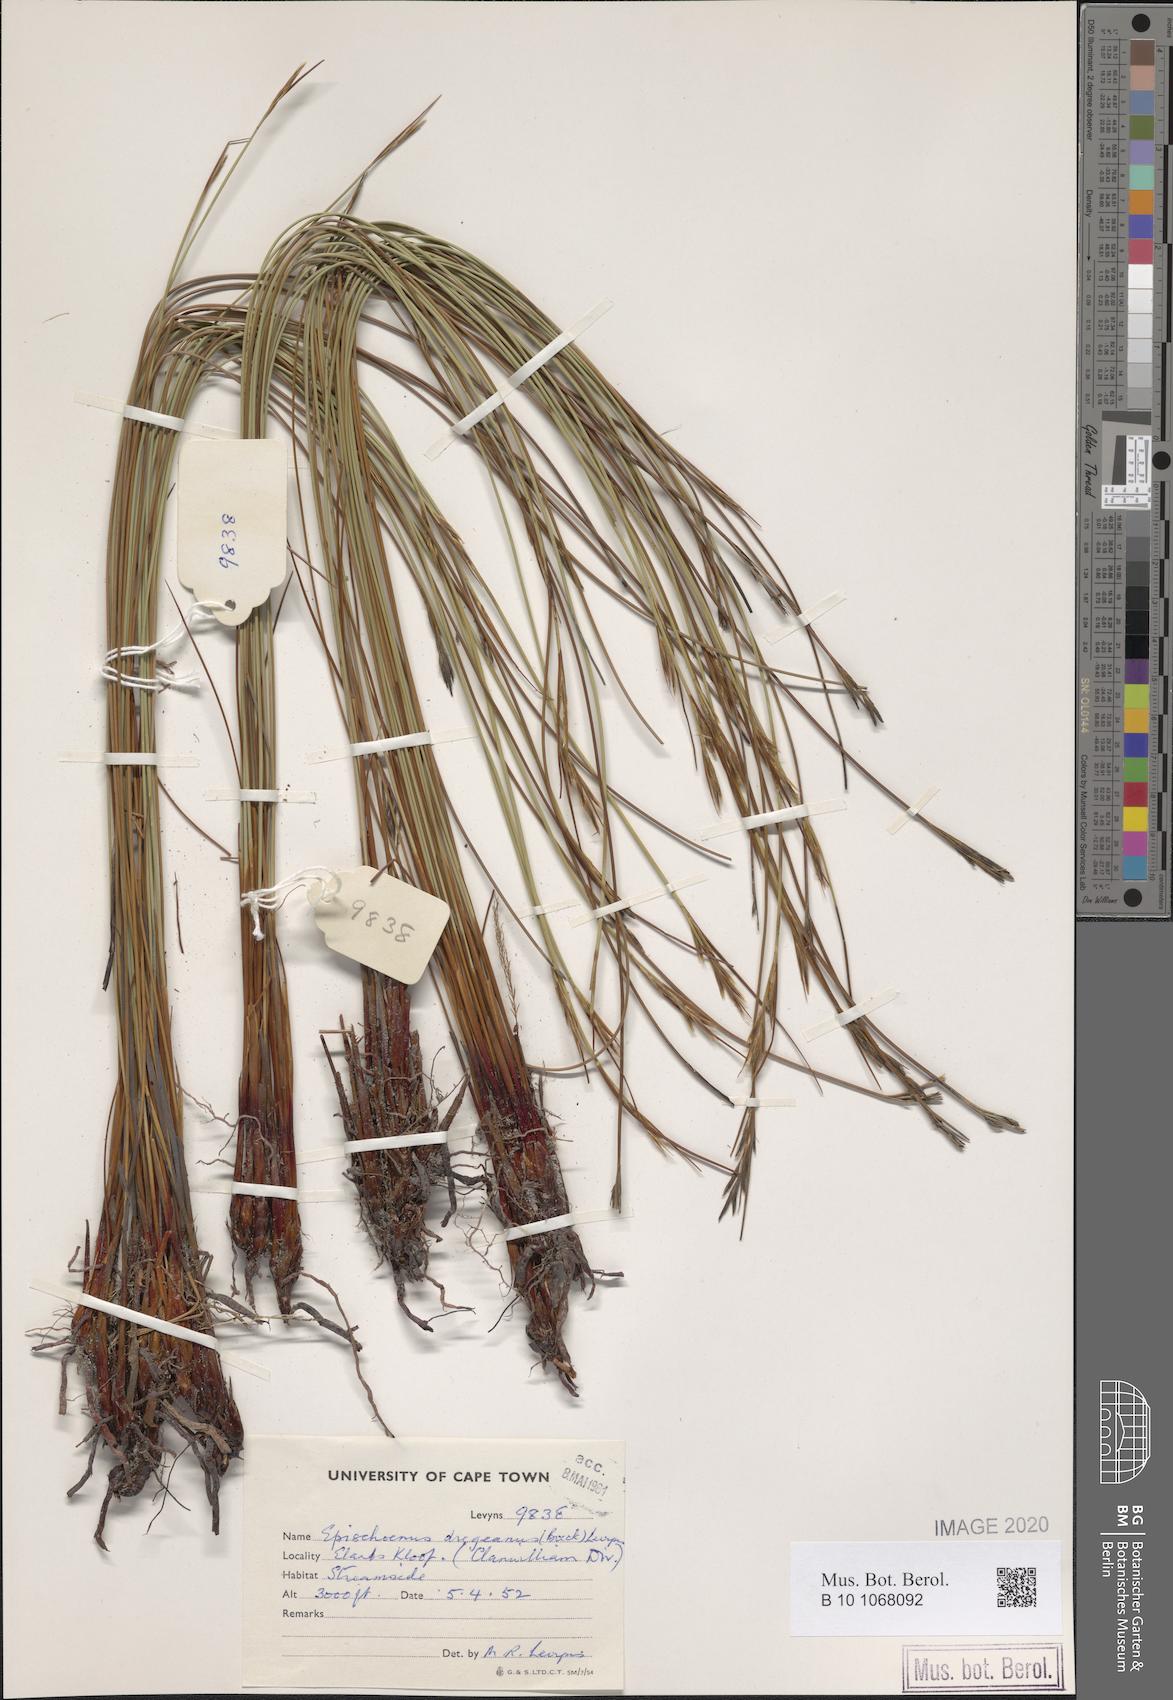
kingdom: Plantae
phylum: Tracheophyta
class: Liliopsida
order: Poales
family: Cyperaceae
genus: Schoenus
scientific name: Schoenus dregeanus
